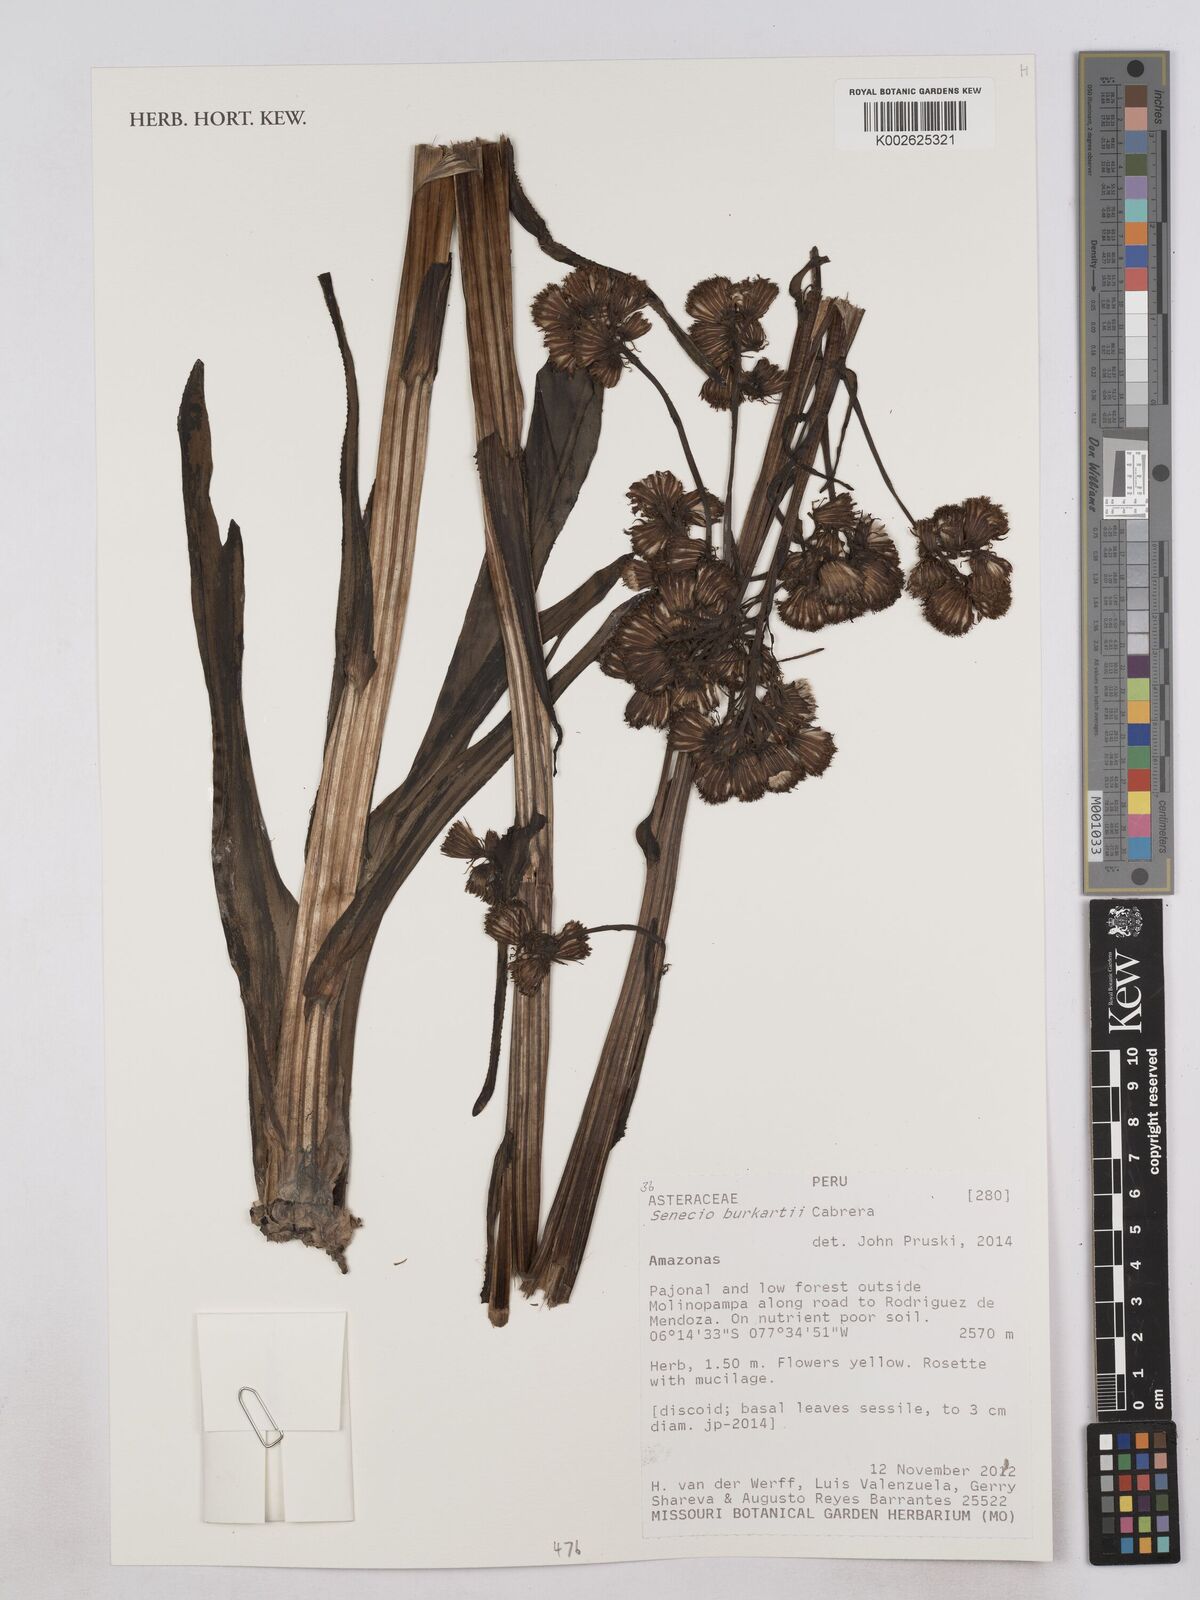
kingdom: Plantae
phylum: Tracheophyta
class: Magnoliopsida
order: Asterales
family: Asteraceae
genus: Senecio
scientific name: Senecio burkartii
